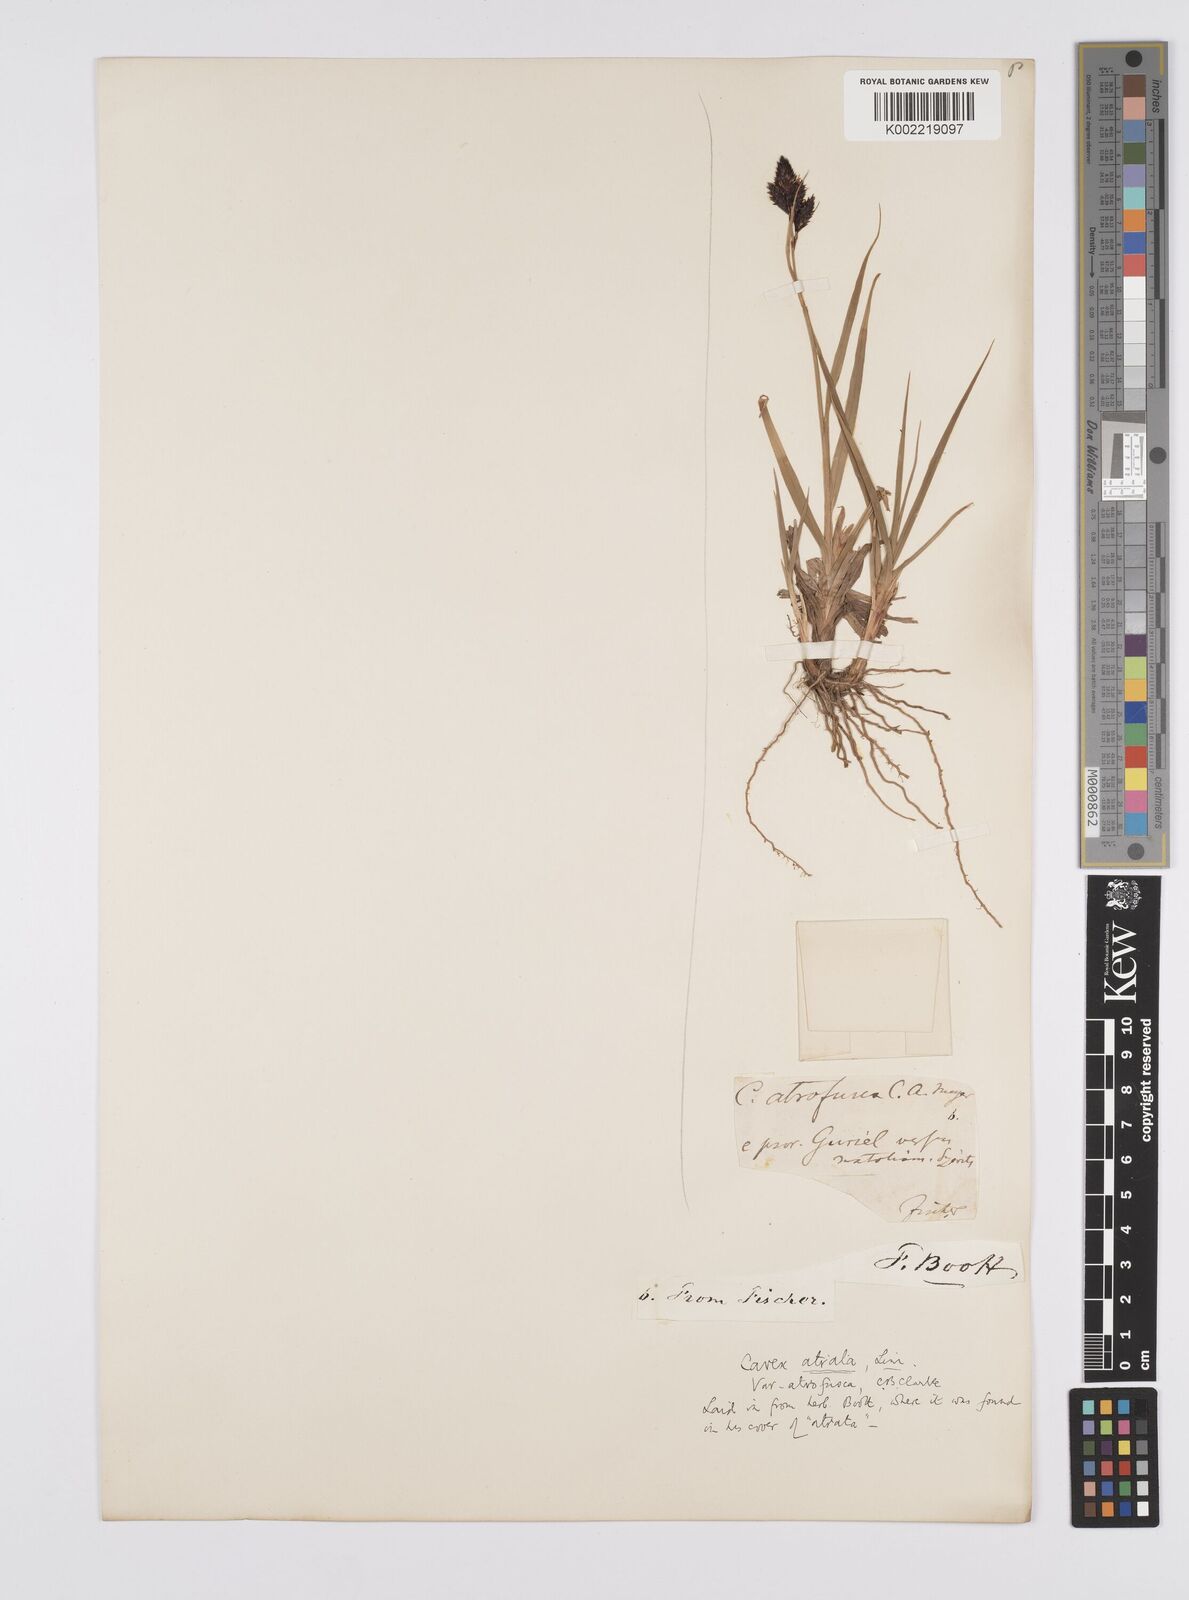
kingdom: Plantae
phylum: Tracheophyta
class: Liliopsida
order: Poales
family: Cyperaceae
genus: Carex
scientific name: Carex aterrima
